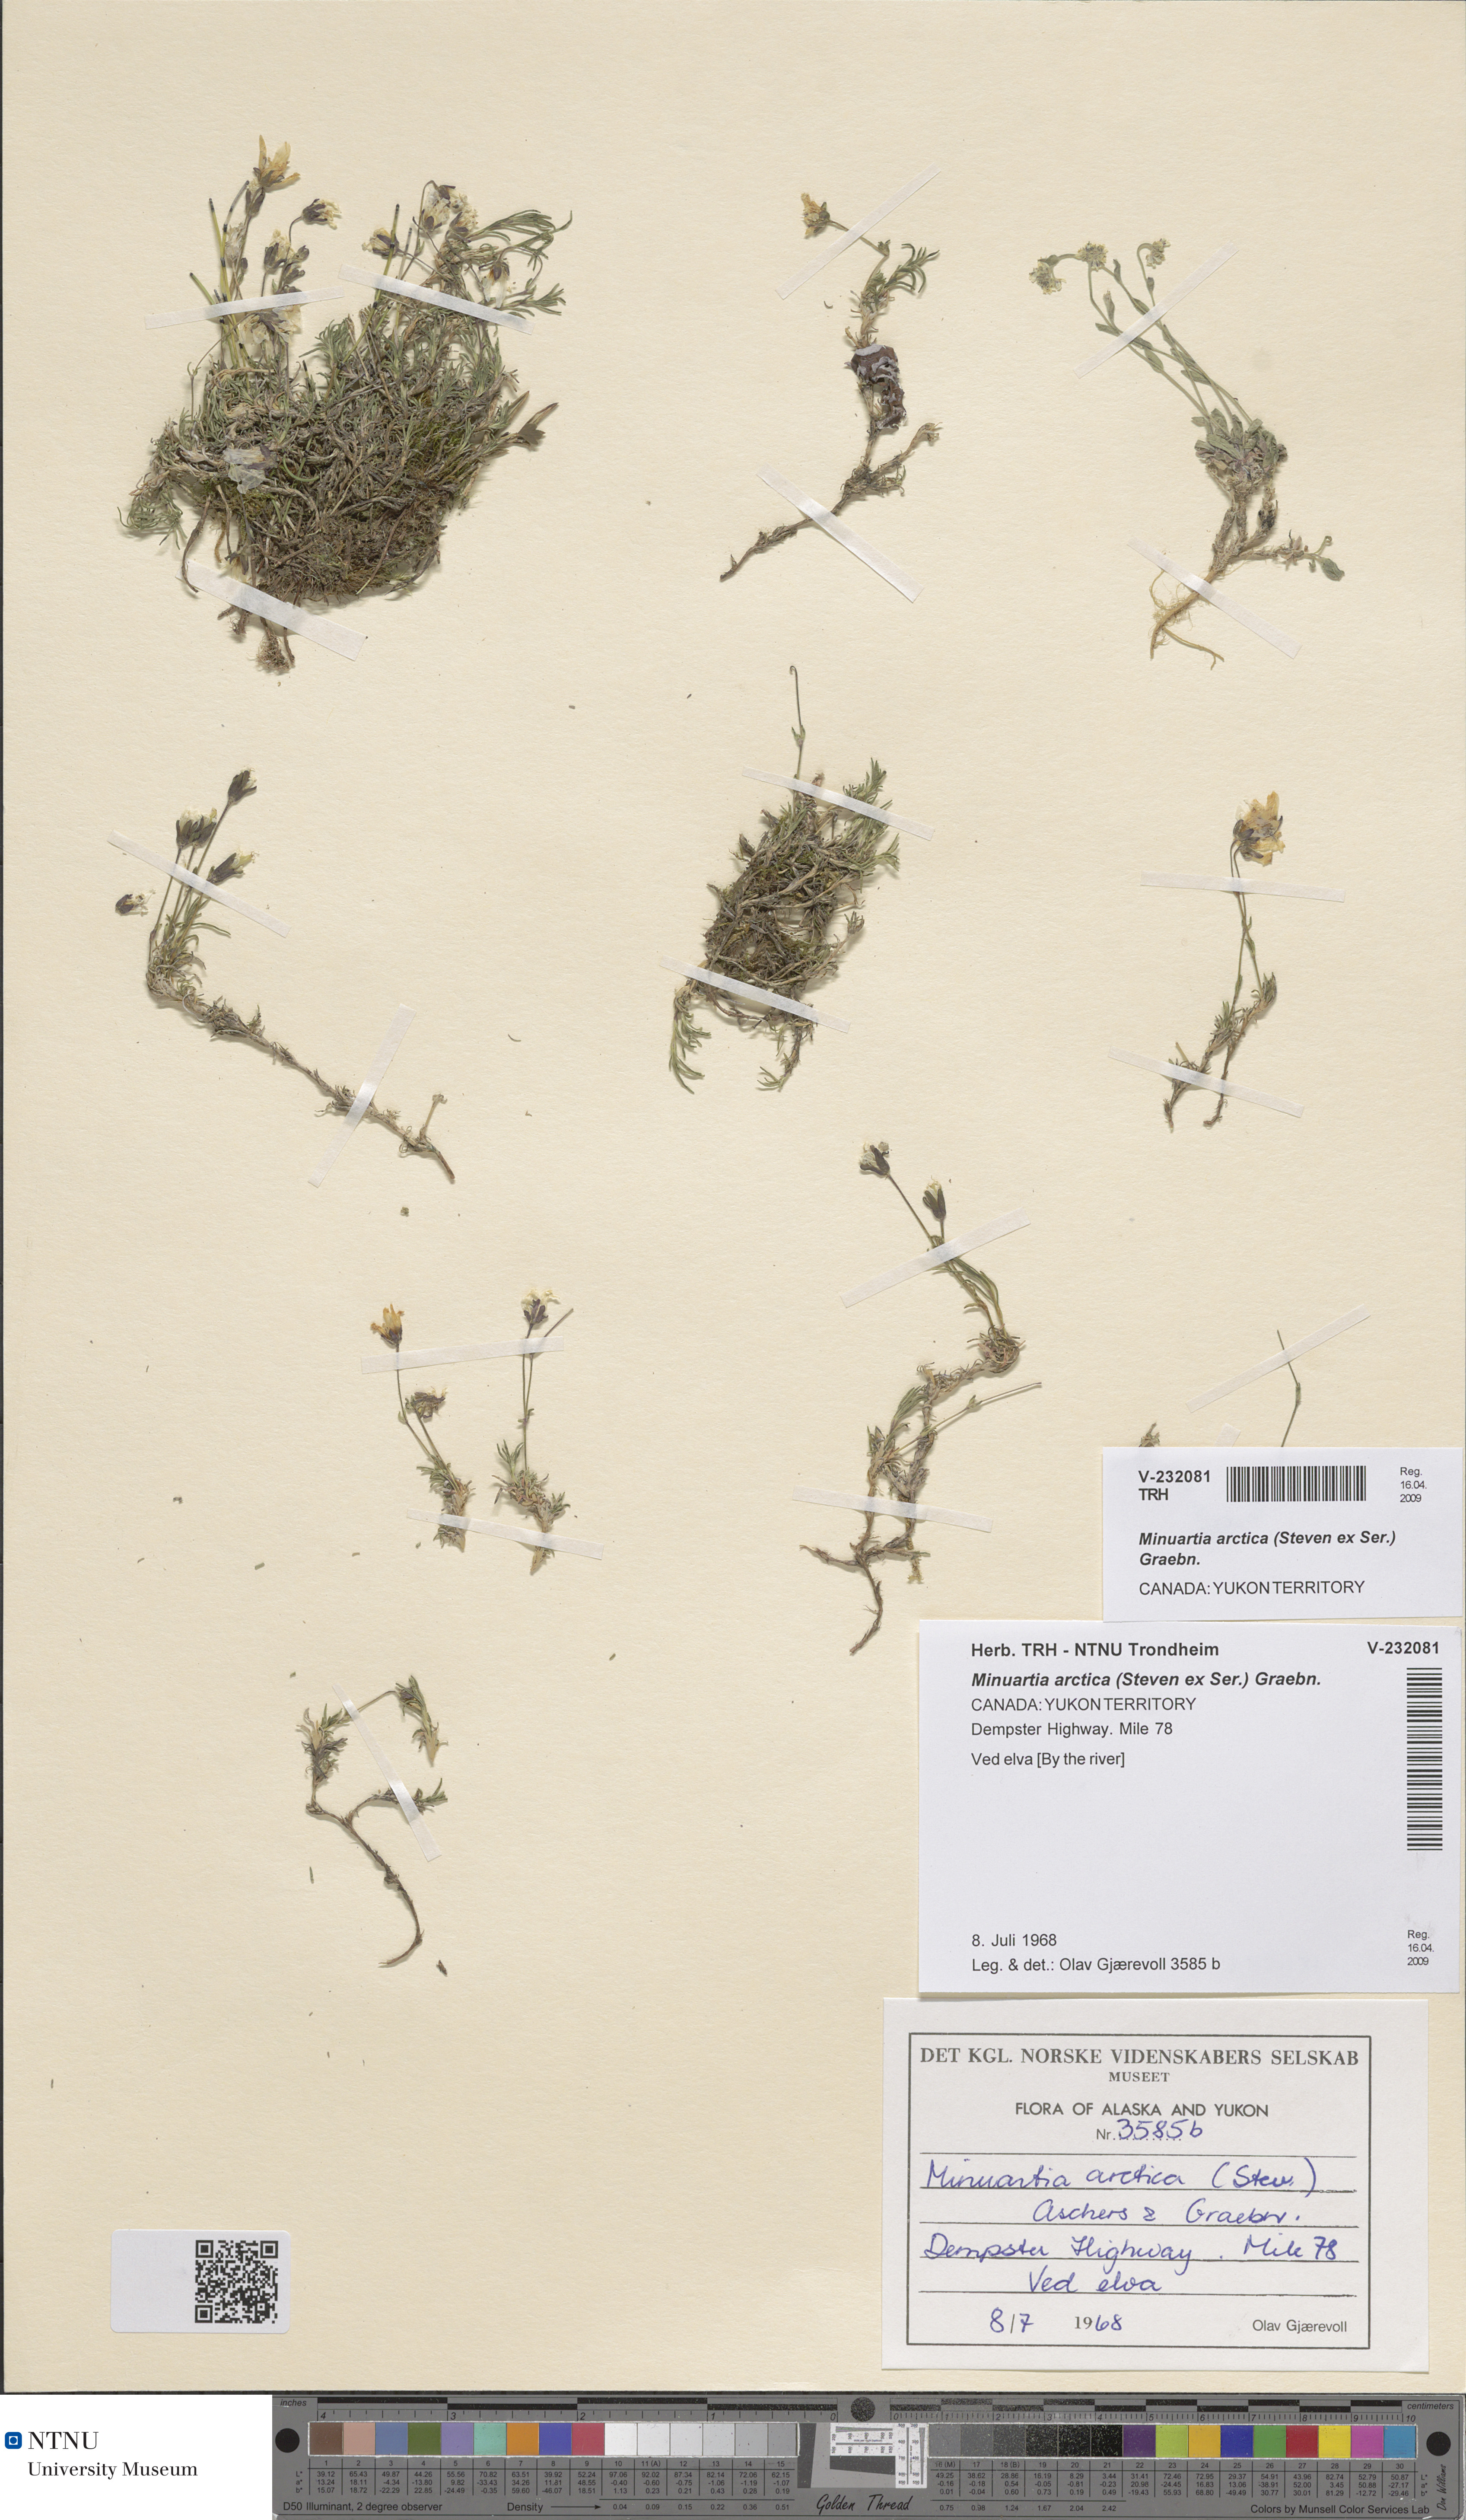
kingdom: Plantae
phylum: Tracheophyta
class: Magnoliopsida
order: Caryophyllales
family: Caryophyllaceae
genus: Cherleria
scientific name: Cherleria arctica
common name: Arctic sandwort
